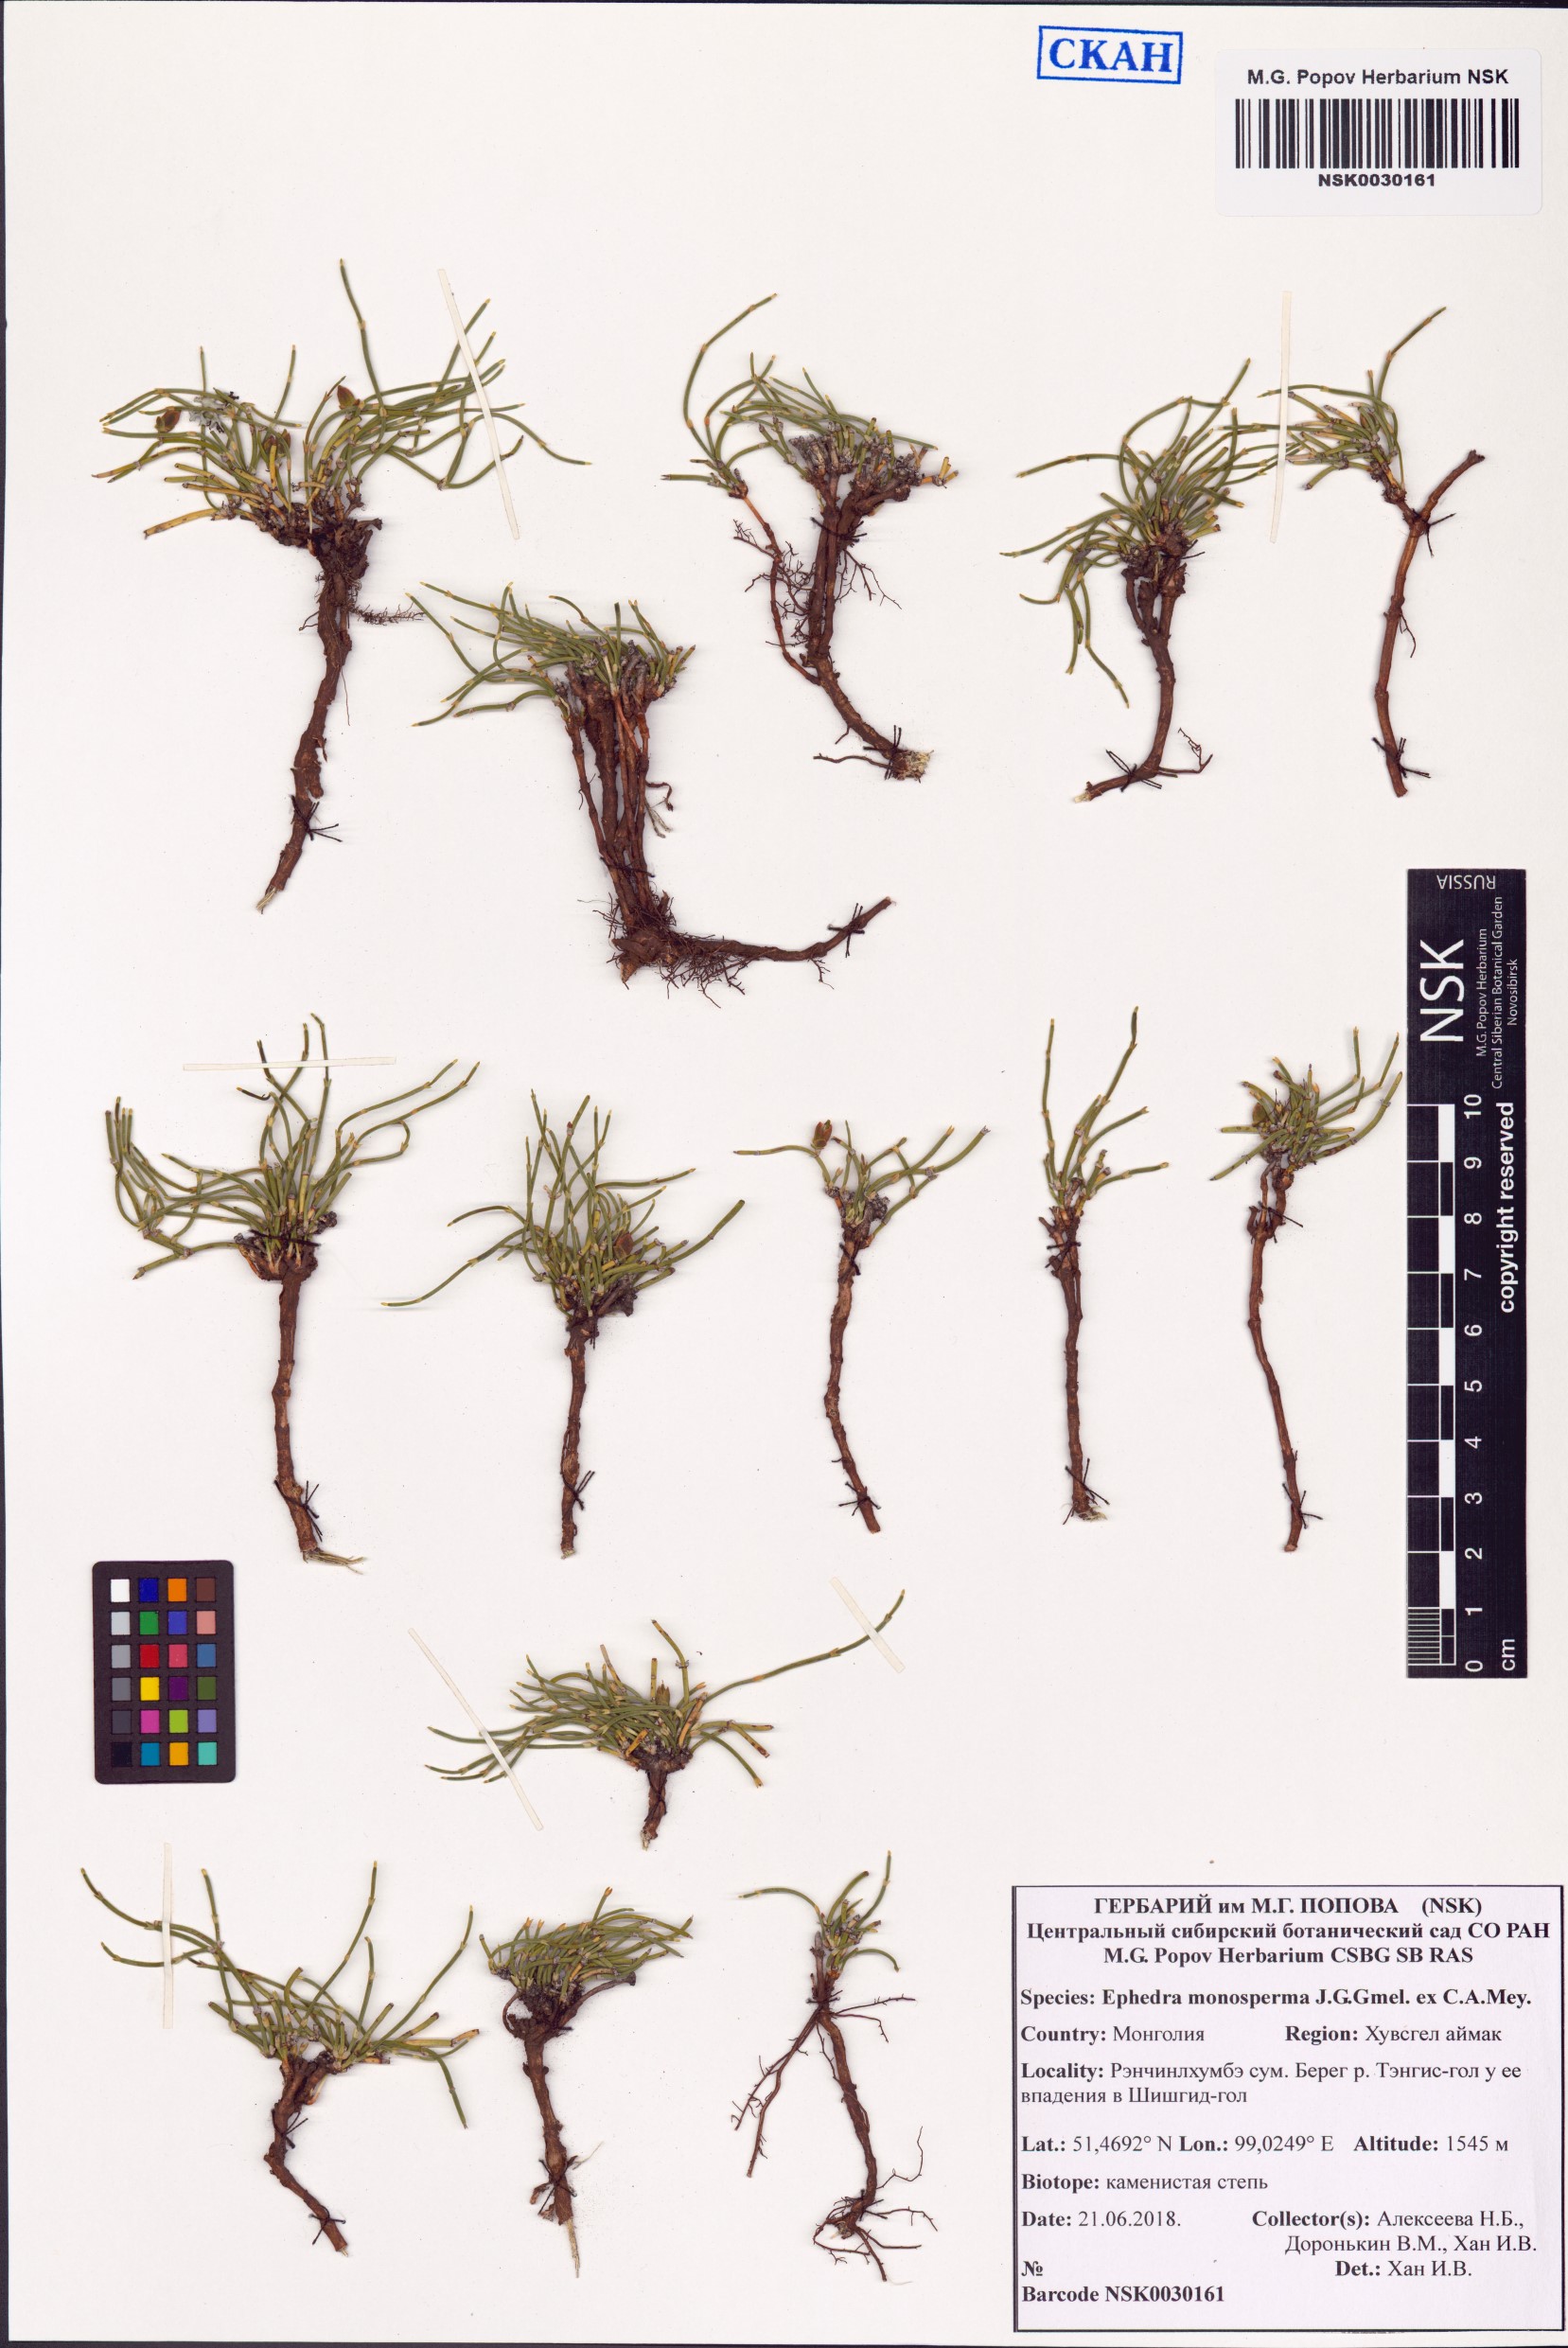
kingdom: Plantae
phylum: Tracheophyta
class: Gnetopsida
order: Ephedrales
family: Ephedraceae
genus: Ephedra
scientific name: Ephedra monosperma
